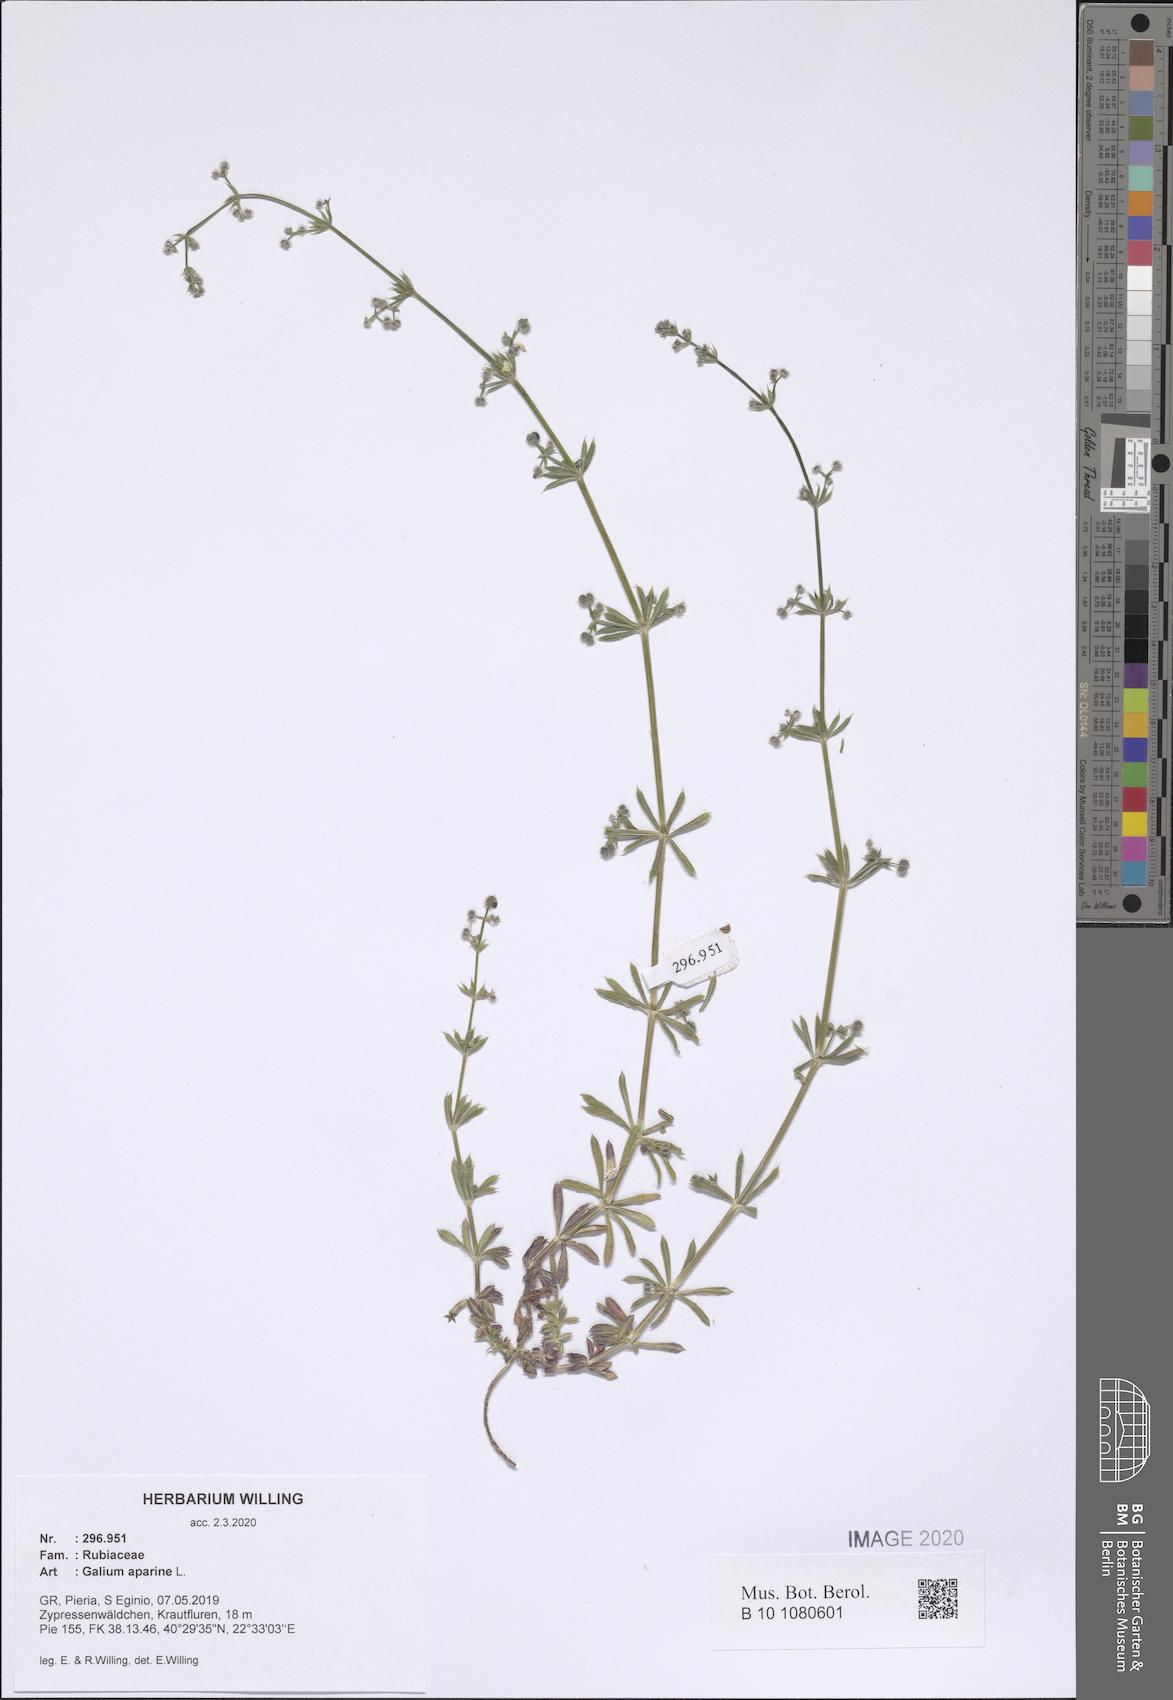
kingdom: Plantae
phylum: Tracheophyta
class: Magnoliopsida
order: Gentianales
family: Rubiaceae
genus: Galium
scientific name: Galium aparine
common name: Cleavers
